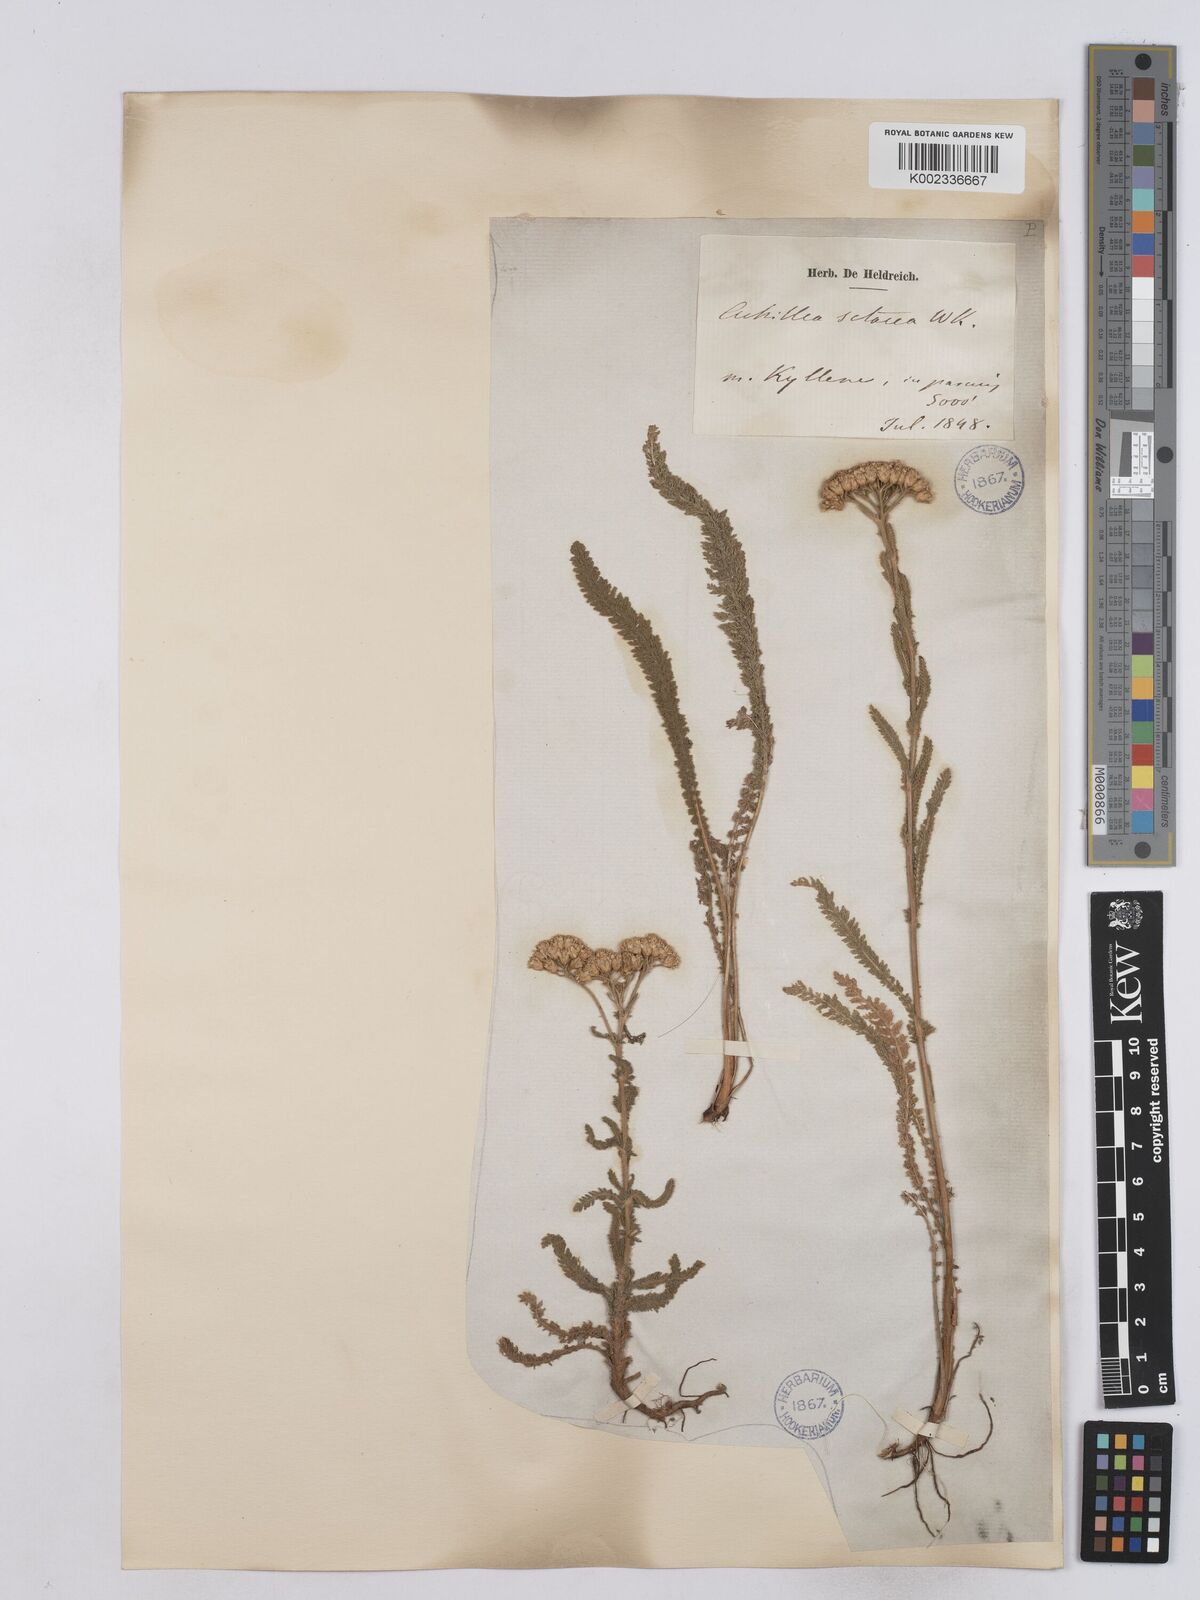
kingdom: Plantae
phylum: Tracheophyta
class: Magnoliopsida
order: Asterales
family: Asteraceae
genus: Achillea
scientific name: Achillea setacea
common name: Bristly yarrow
